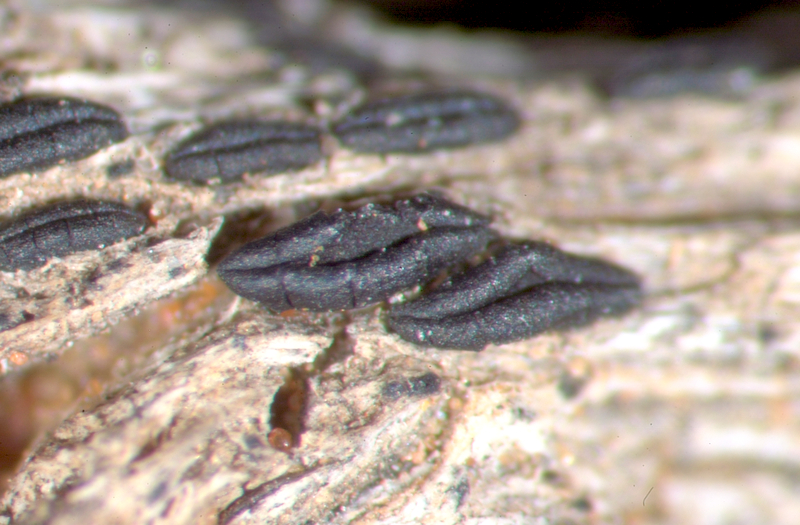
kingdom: Fungi
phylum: Ascomycota
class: Arthoniomycetes
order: Arthoniales
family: Lecanographaceae
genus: Alyxoria
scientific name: Alyxoria varia
